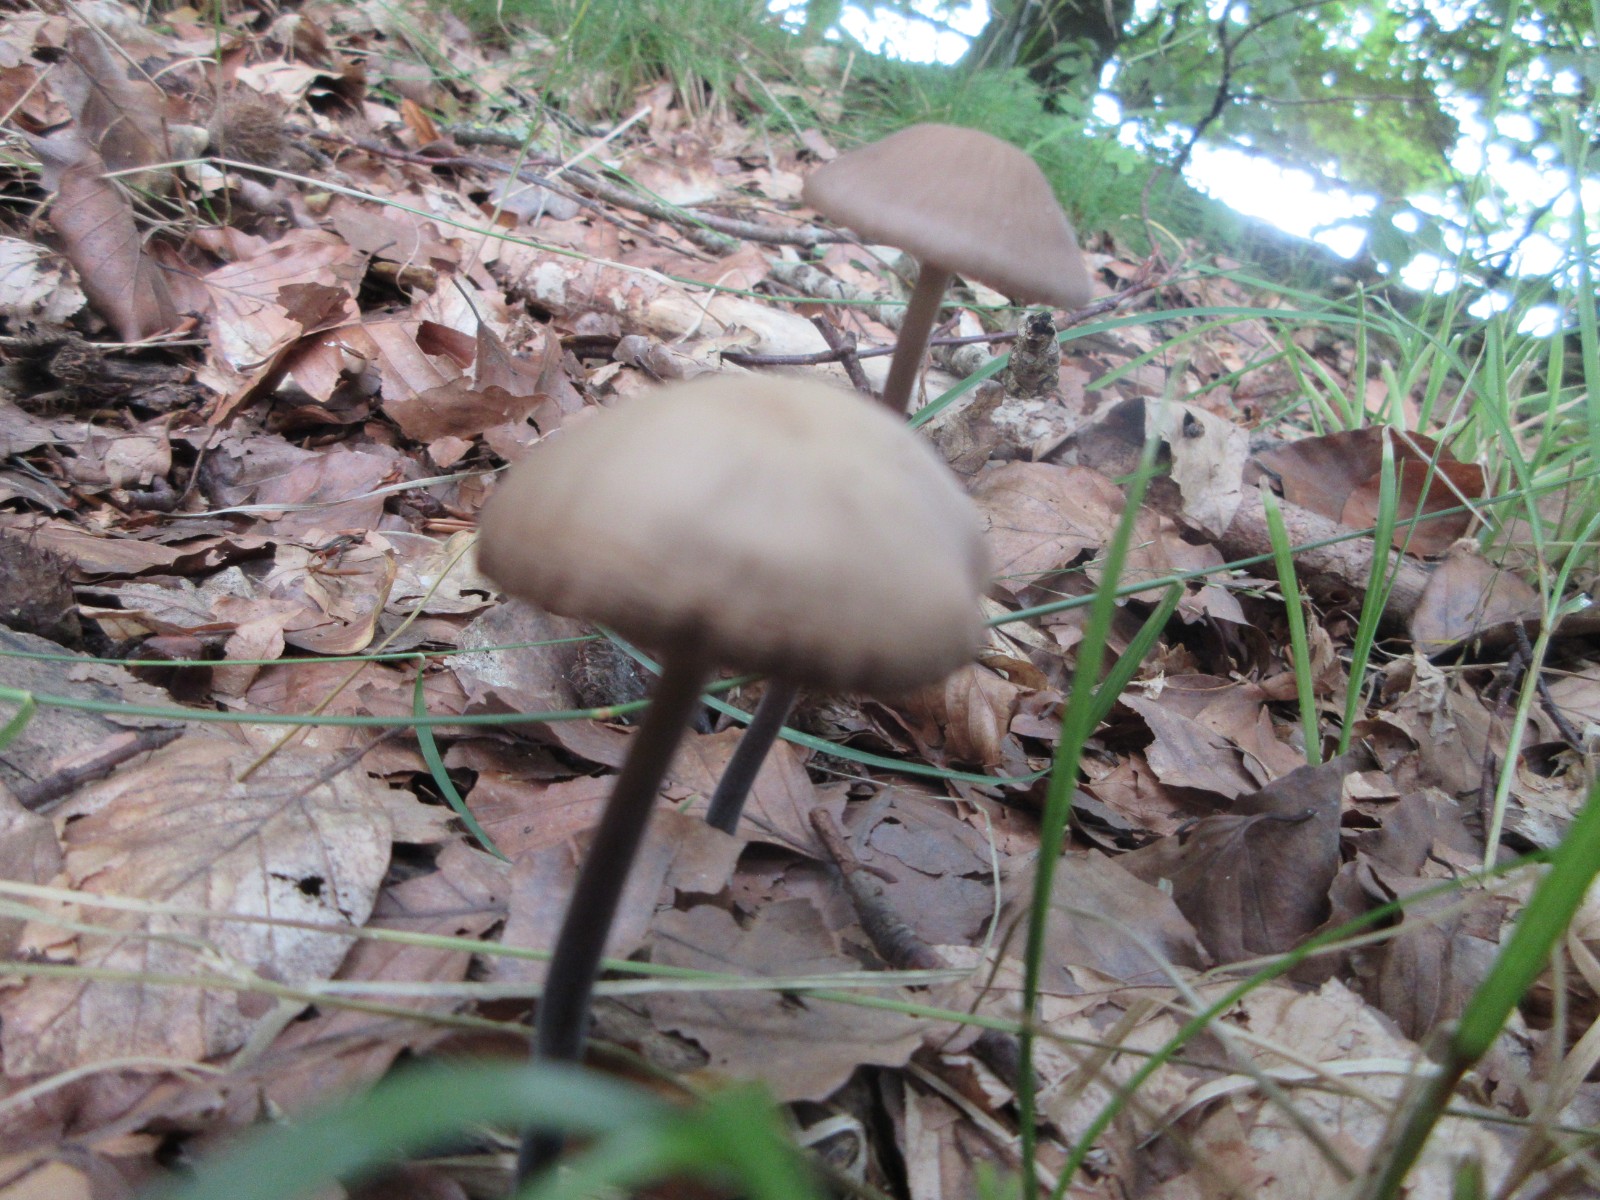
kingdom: Fungi
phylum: Basidiomycota
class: Agaricomycetes
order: Agaricales
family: Omphalotaceae
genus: Mycetinis
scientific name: Mycetinis alliaceus
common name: stor løghat
